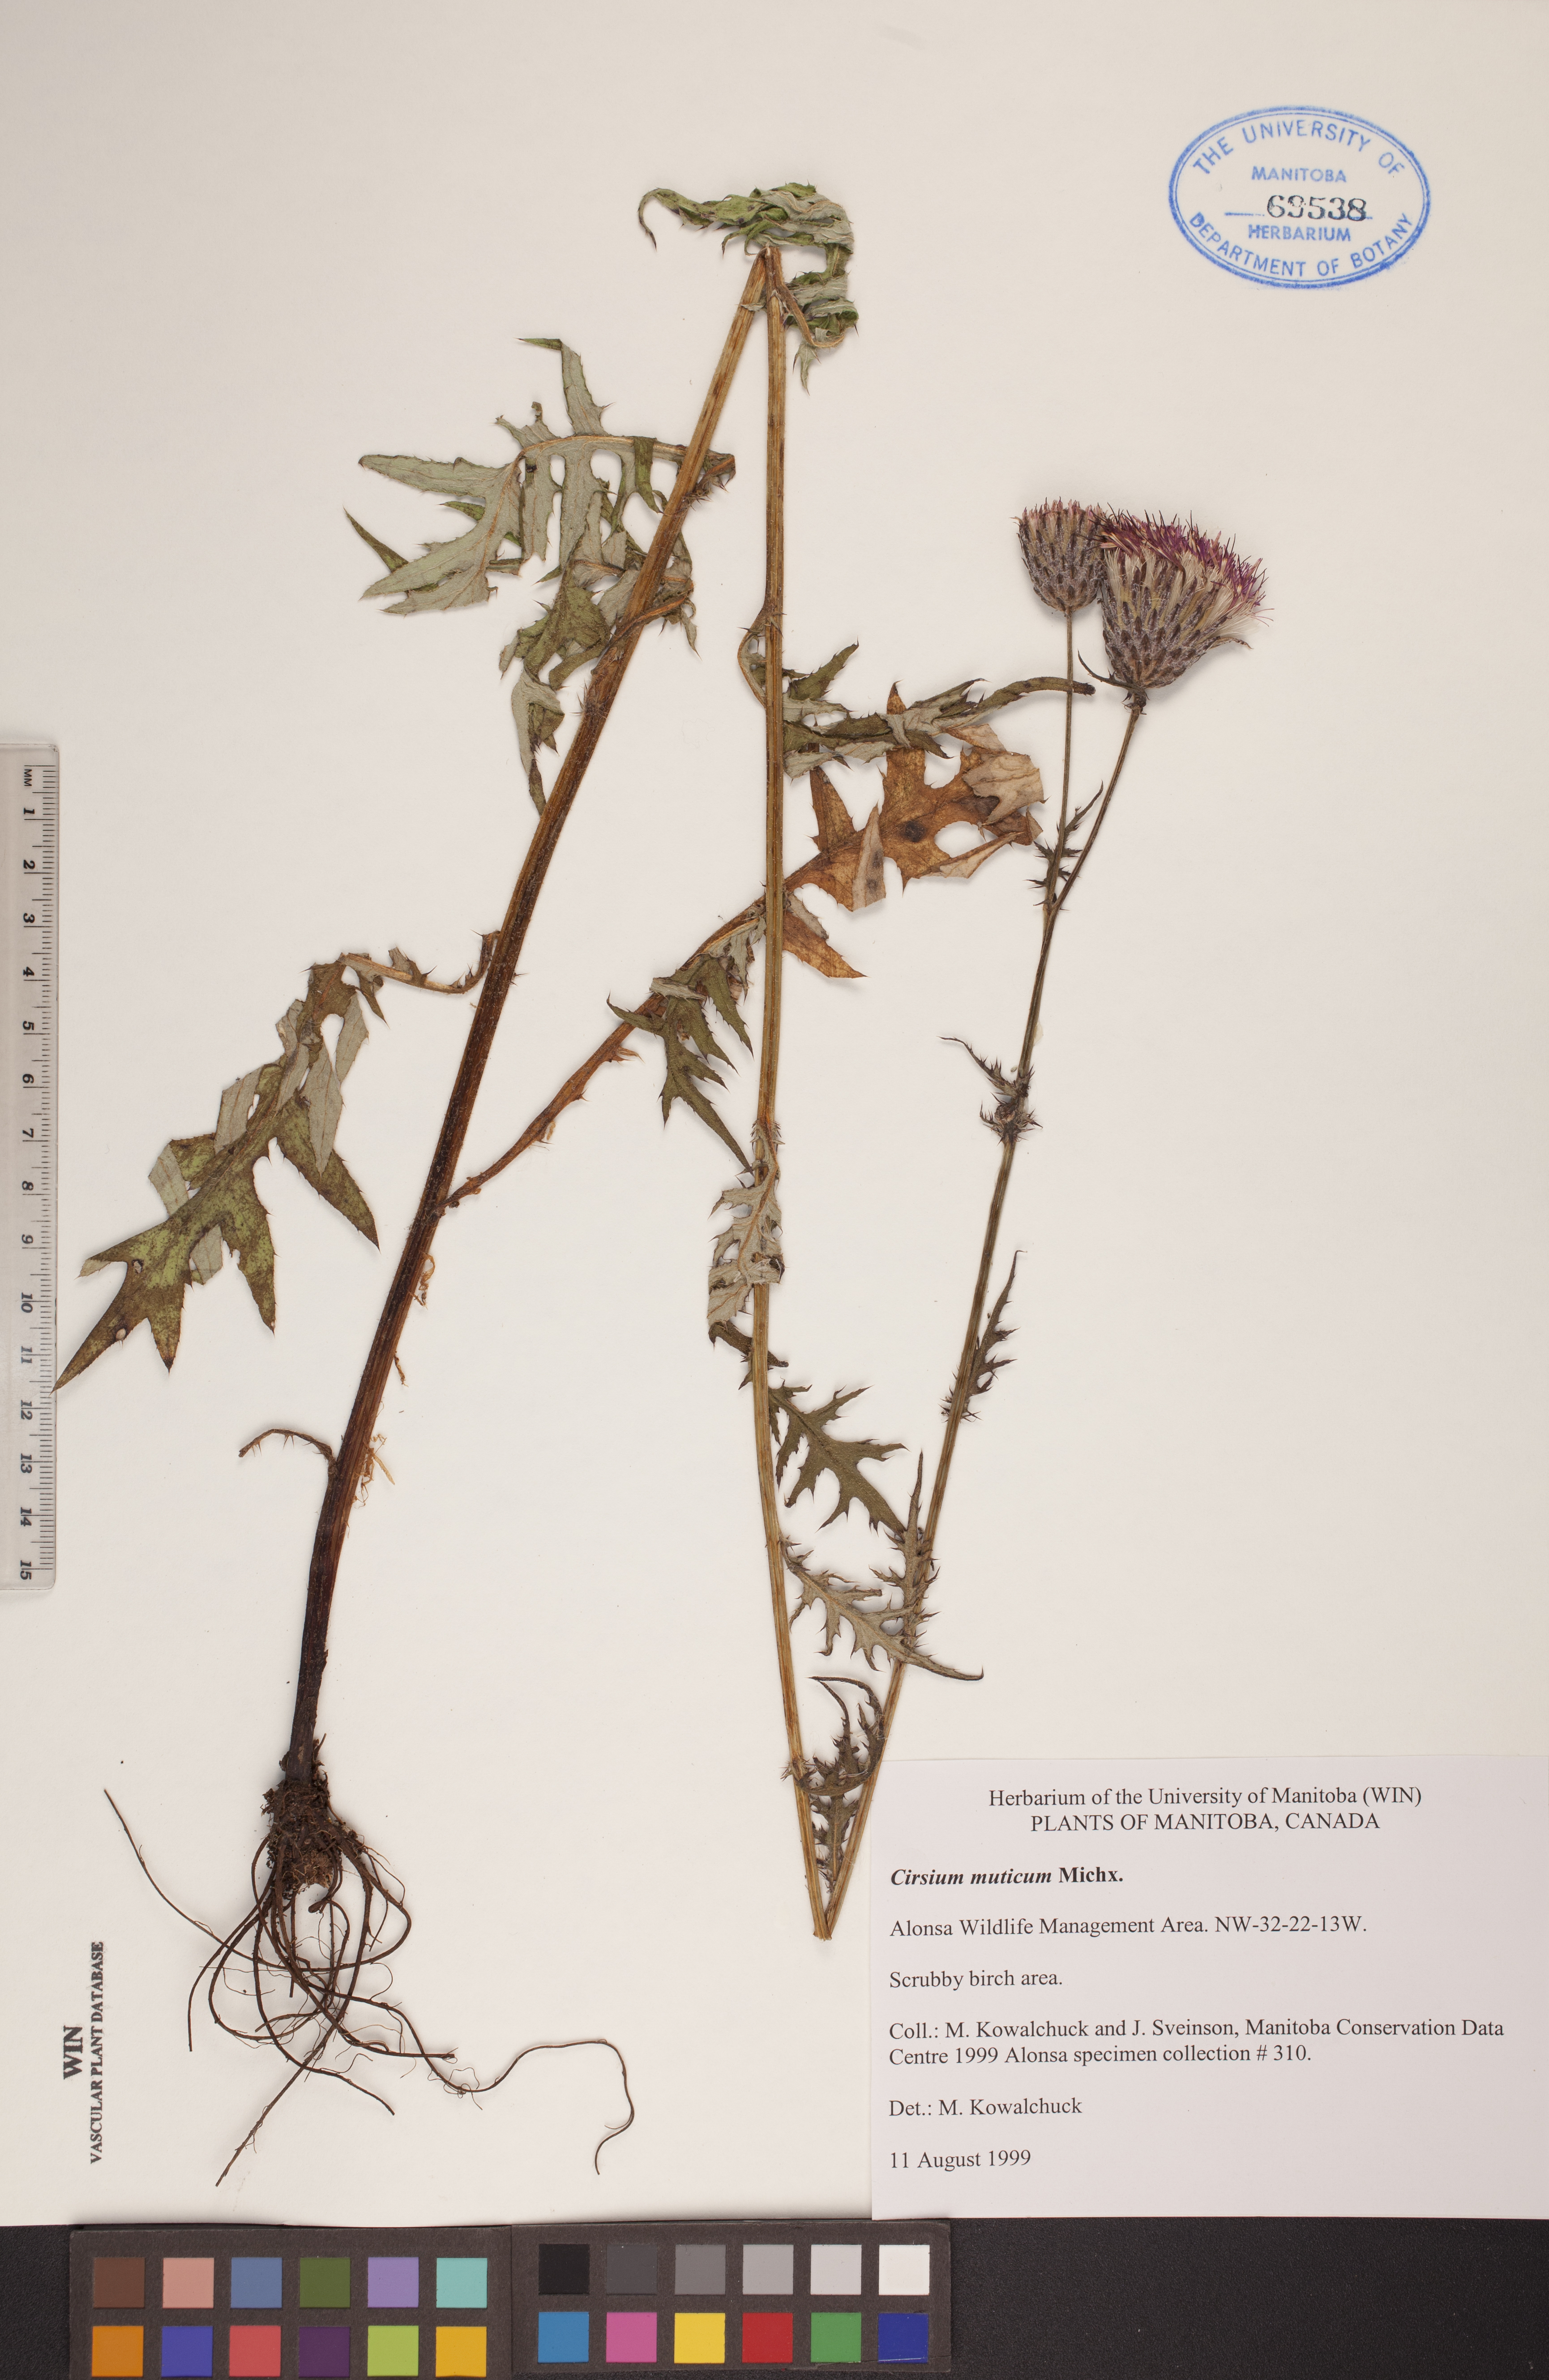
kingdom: Plantae
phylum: Tracheophyta
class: Magnoliopsida
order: Asterales
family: Asteraceae
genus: Cirsium
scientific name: Cirsium muticum
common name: Dunce-nettle
